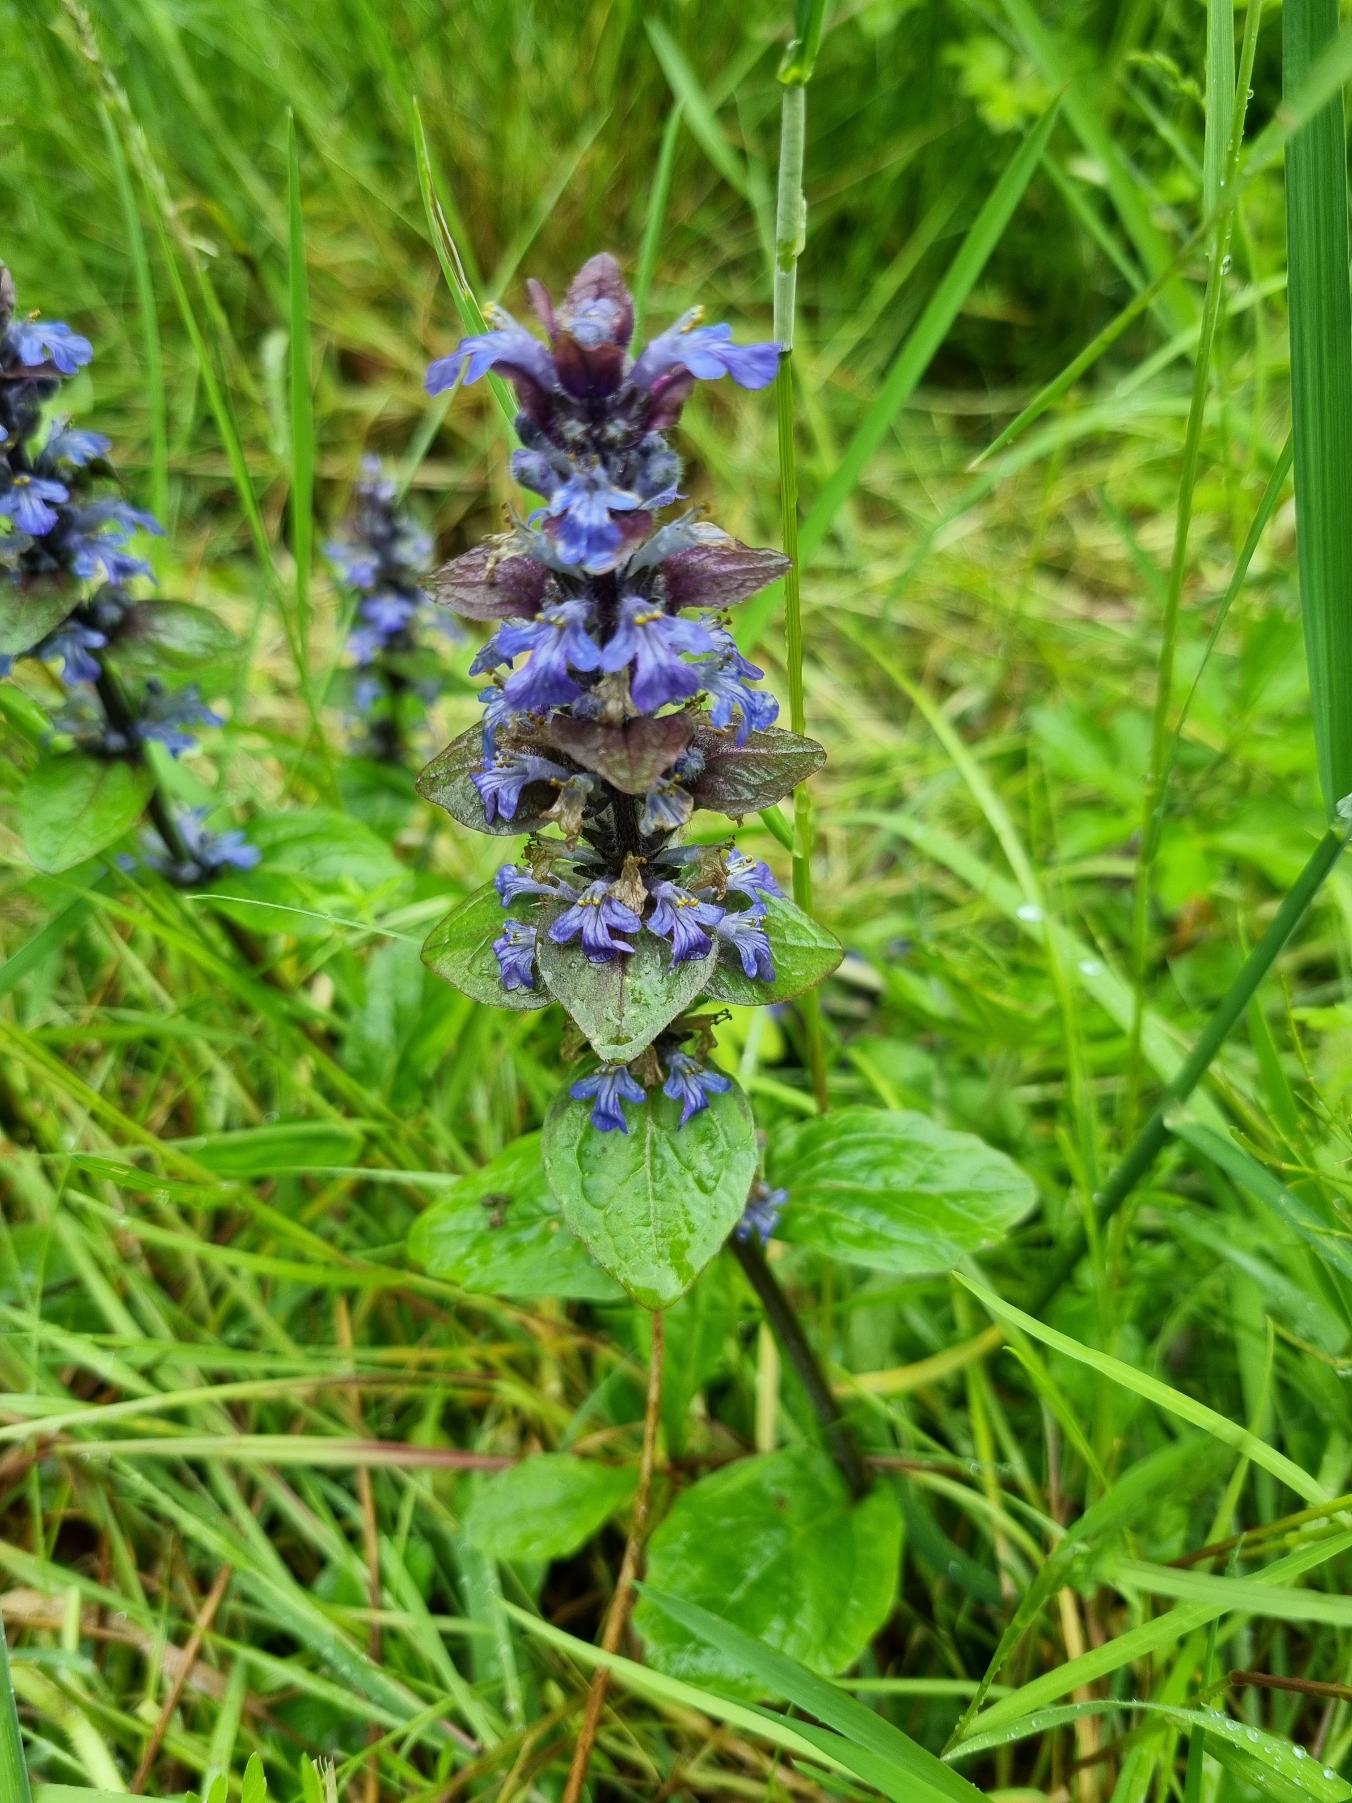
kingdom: Plantae
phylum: Tracheophyta
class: Magnoliopsida
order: Lamiales
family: Lamiaceae
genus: Ajuga
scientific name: Ajuga reptans
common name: Krybende læbeløs
